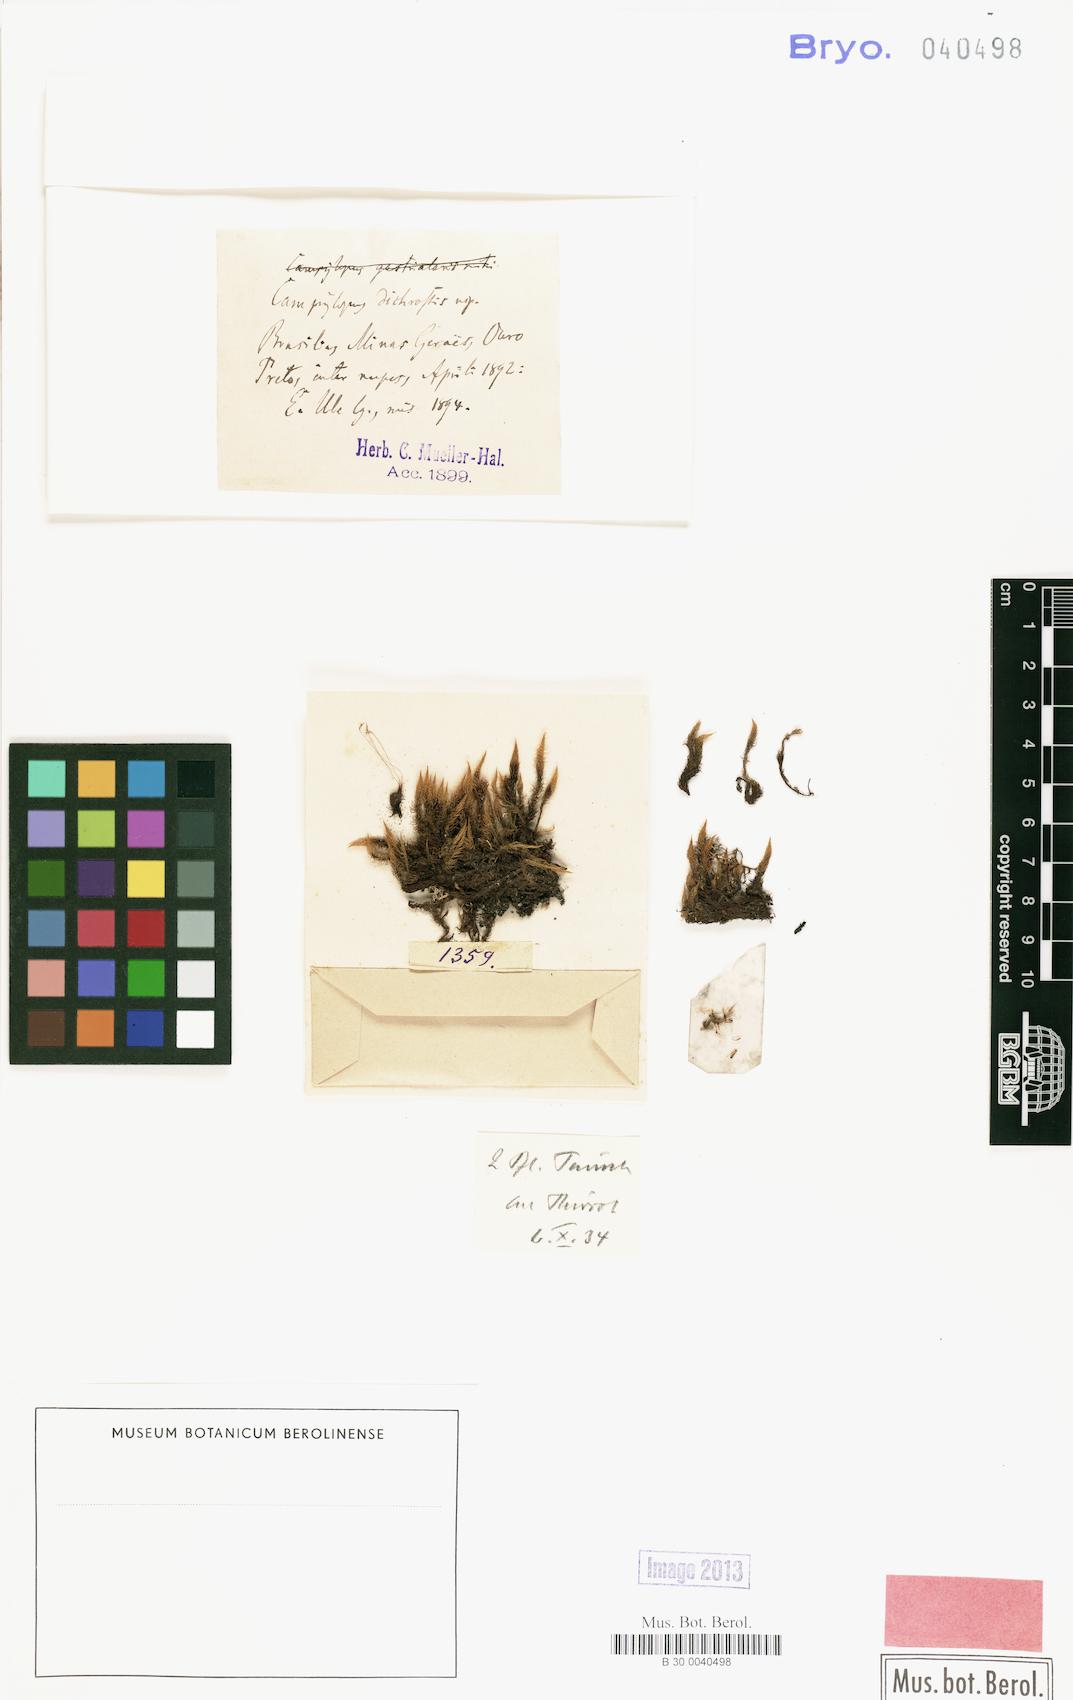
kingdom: Plantae
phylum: Bryophyta
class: Bryopsida
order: Dicranales
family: Leucobryaceae
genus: Campylopus
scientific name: Campylopus dichrostis
